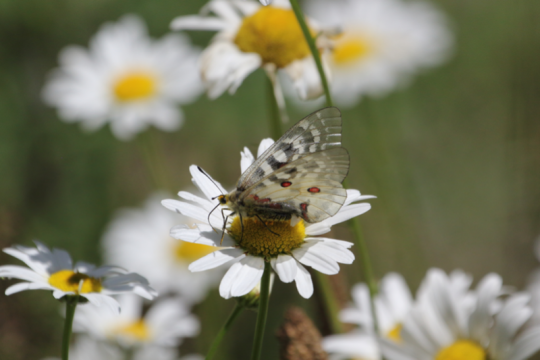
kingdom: Animalia
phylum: Arthropoda
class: Insecta
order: Lepidoptera
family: Papilionidae
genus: Parnassius
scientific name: Parnassius clodius
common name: Clodius Parnassian
